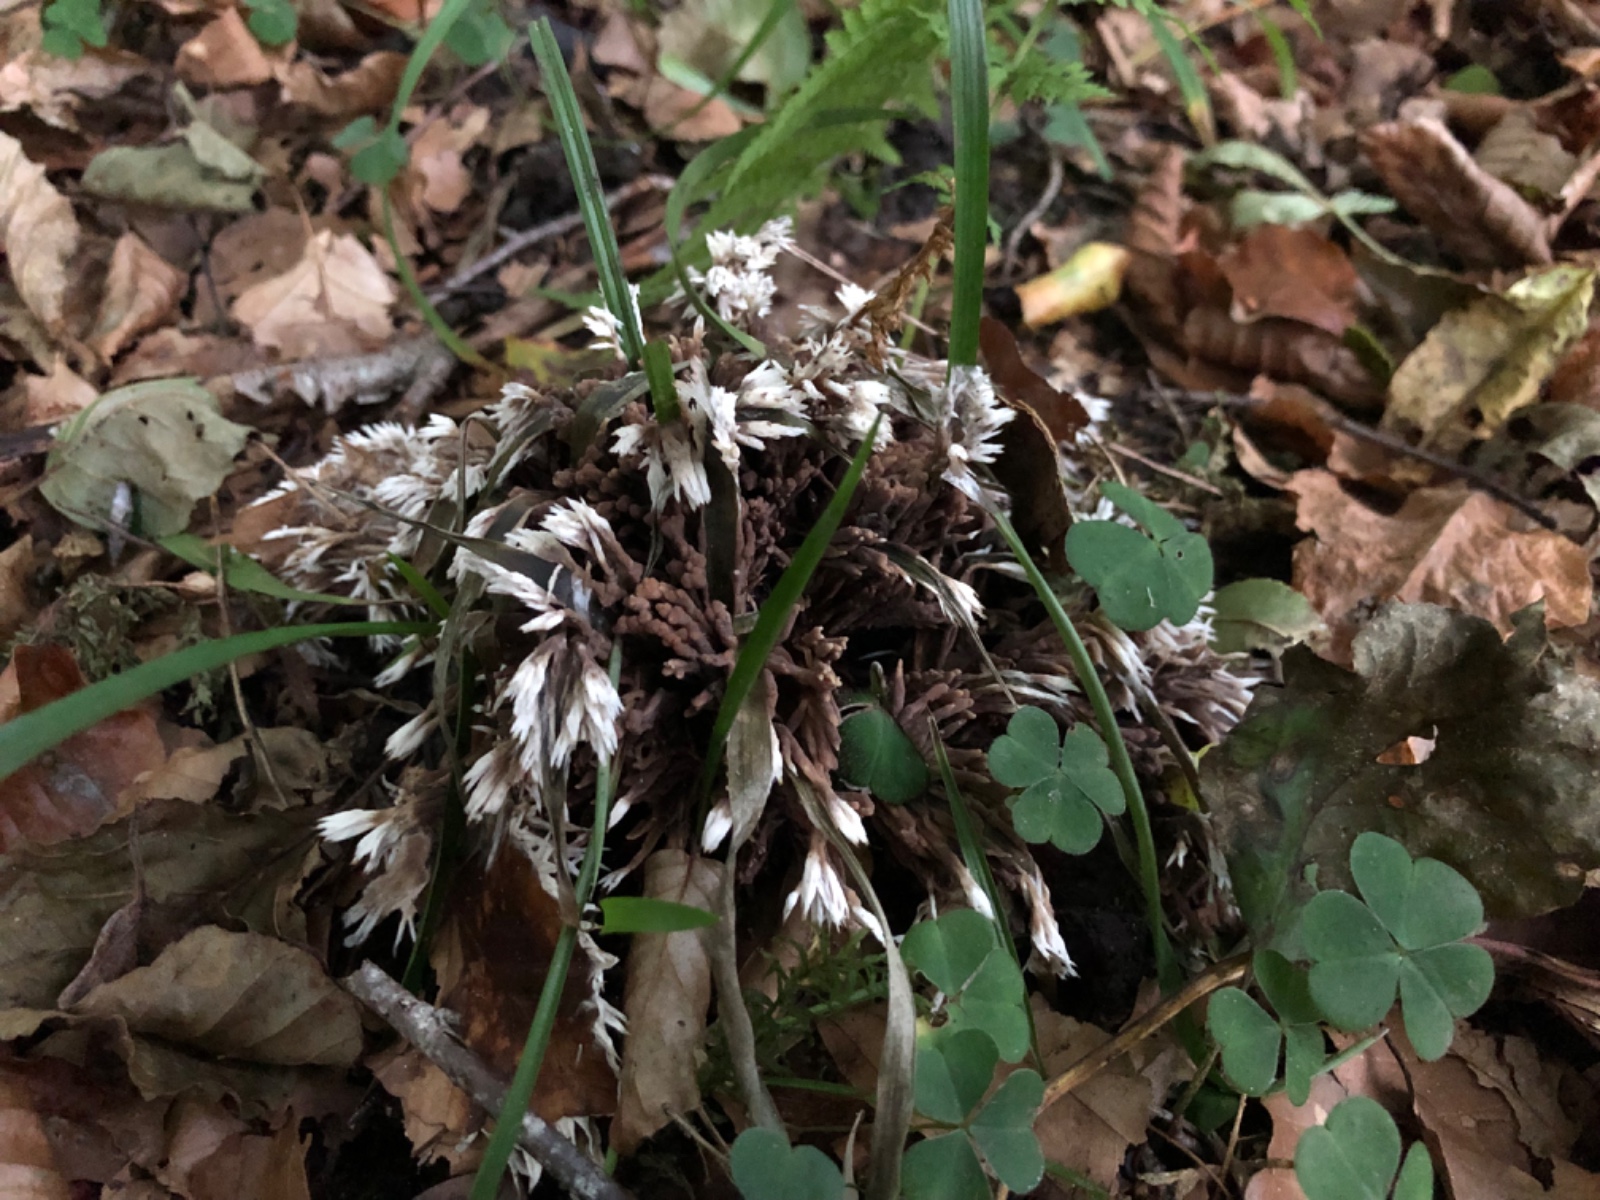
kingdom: Fungi
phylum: Basidiomycota
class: Agaricomycetes
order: Thelephorales
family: Thelephoraceae
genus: Thelephora
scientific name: Thelephora penicillata
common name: fladtrådt frynsesvamp
